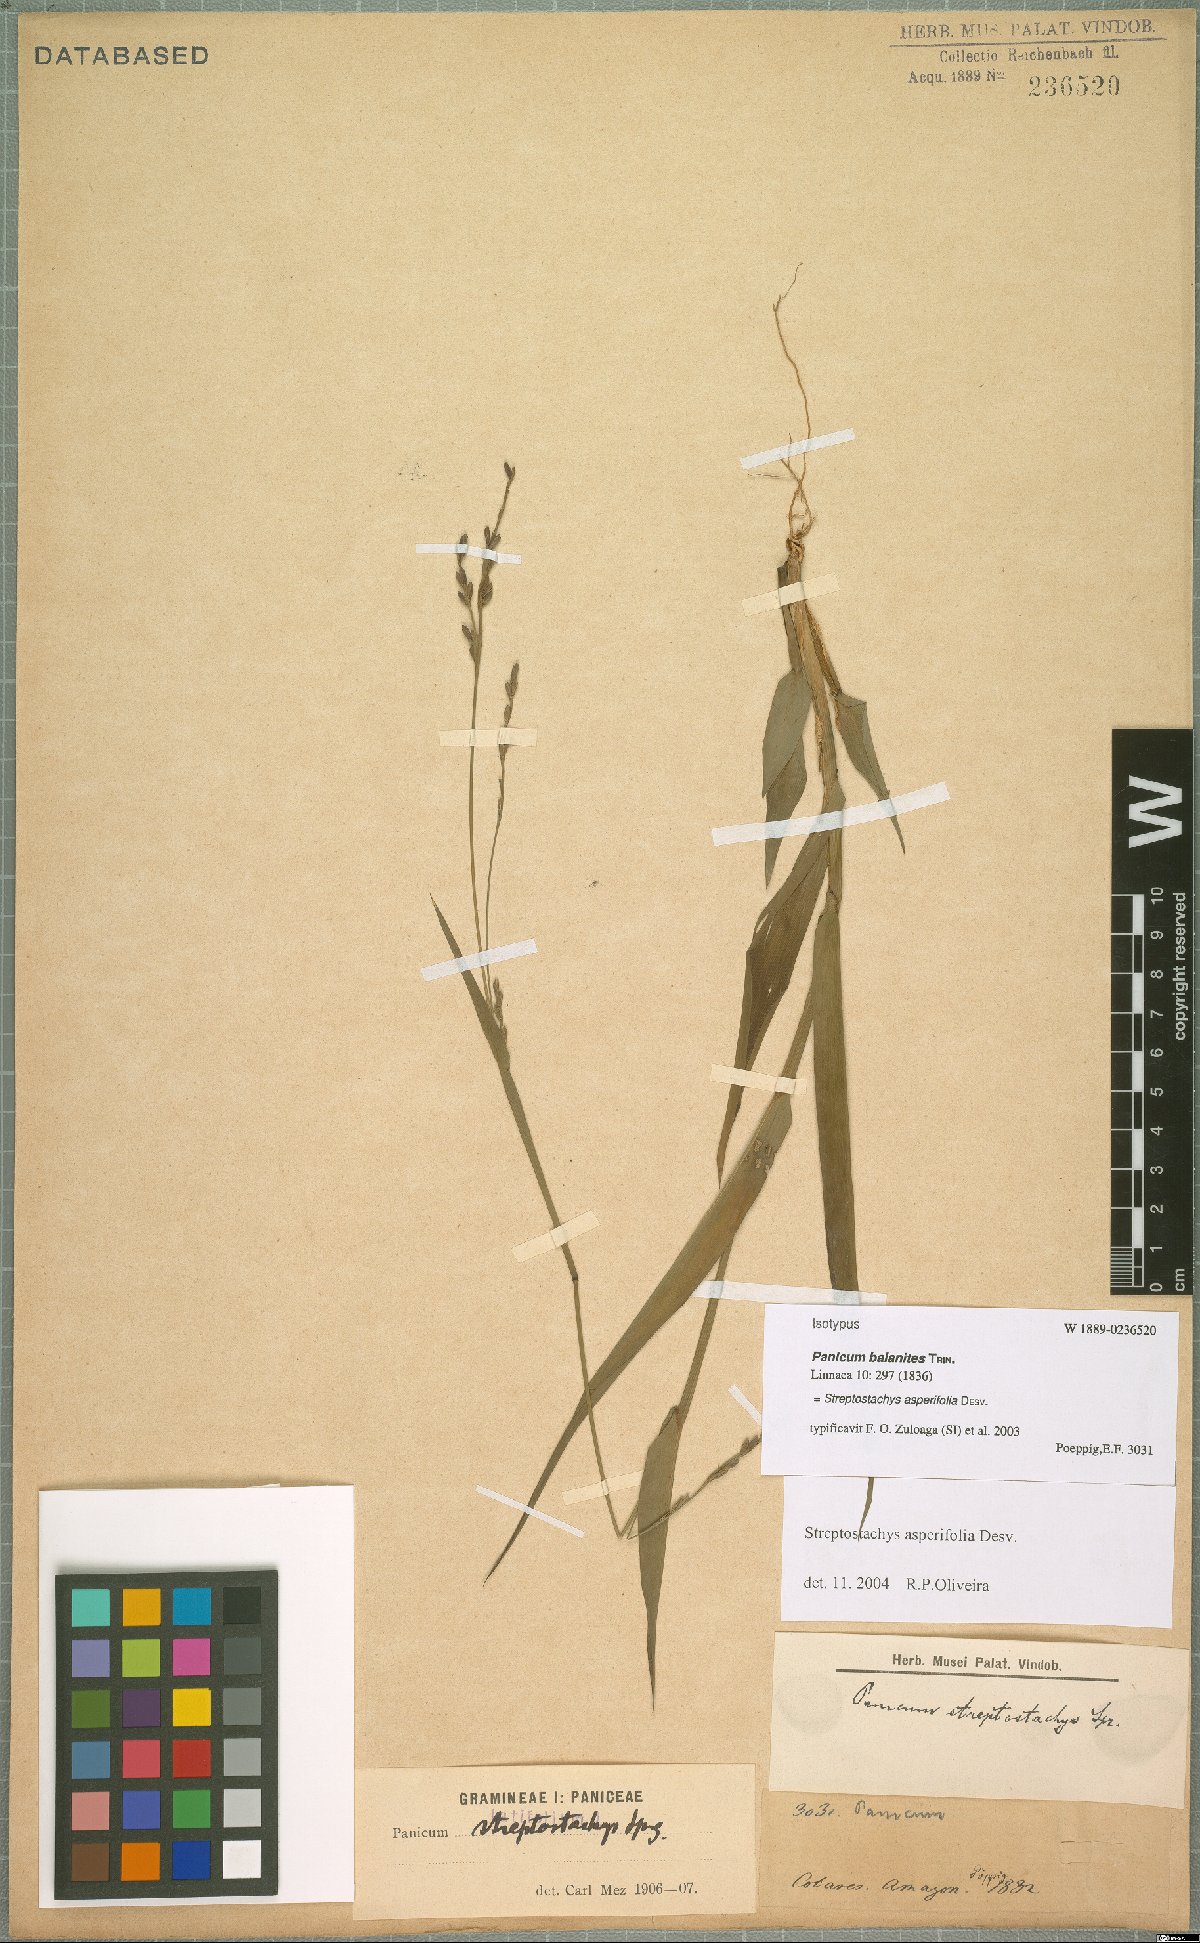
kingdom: Plantae
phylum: Tracheophyta
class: Liliopsida
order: Poales
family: Poaceae
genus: Streptostachys
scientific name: Streptostachys asperifolia
